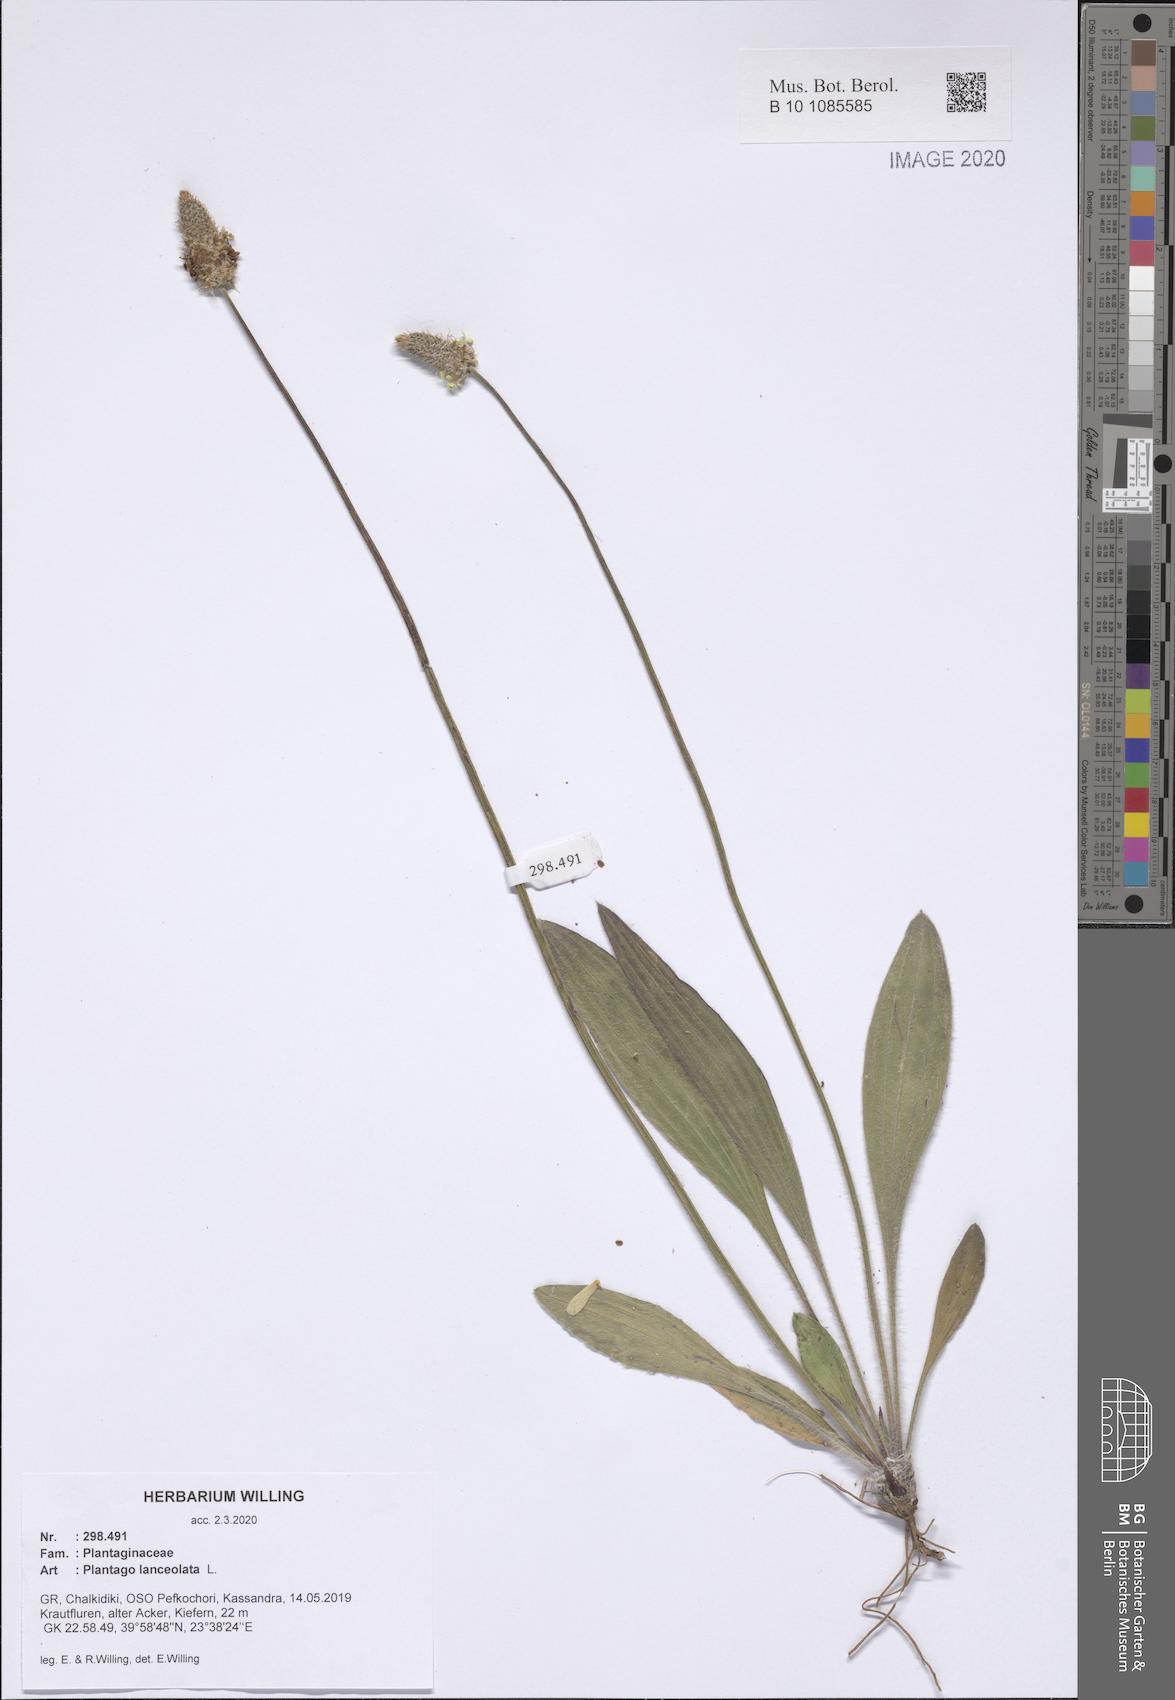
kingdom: Plantae
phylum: Tracheophyta
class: Magnoliopsida
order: Lamiales
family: Plantaginaceae
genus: Plantago
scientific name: Plantago lanceolata
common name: Ribwort plantain
